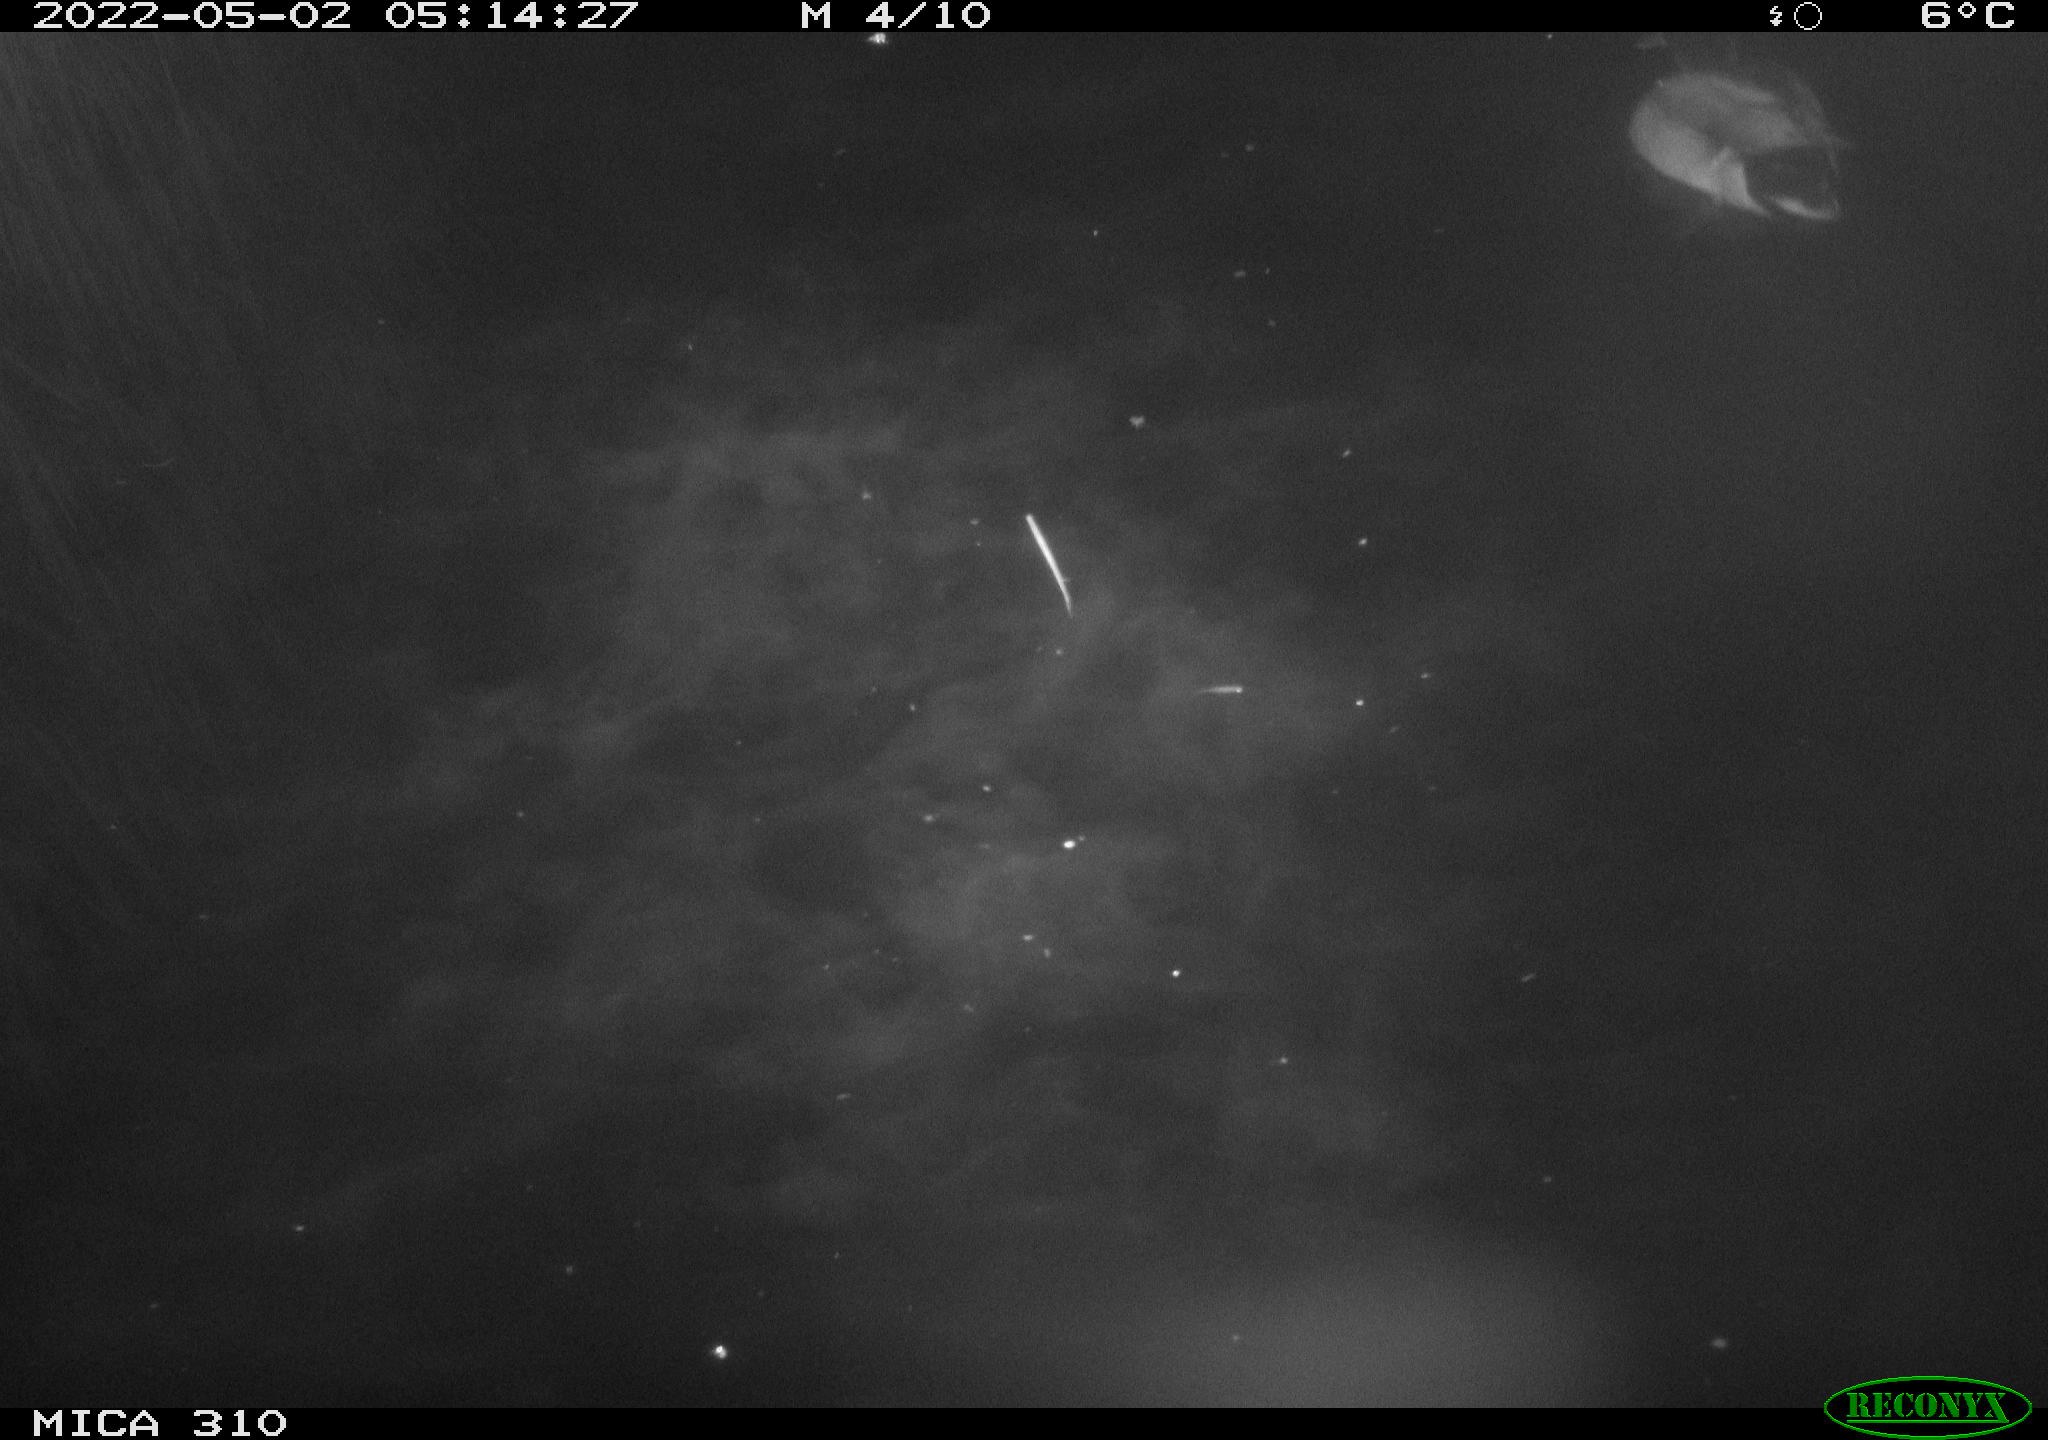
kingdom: Animalia
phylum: Chordata
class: Aves
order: Gruiformes
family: Rallidae
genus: Fulica
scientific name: Fulica atra
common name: Eurasian coot
